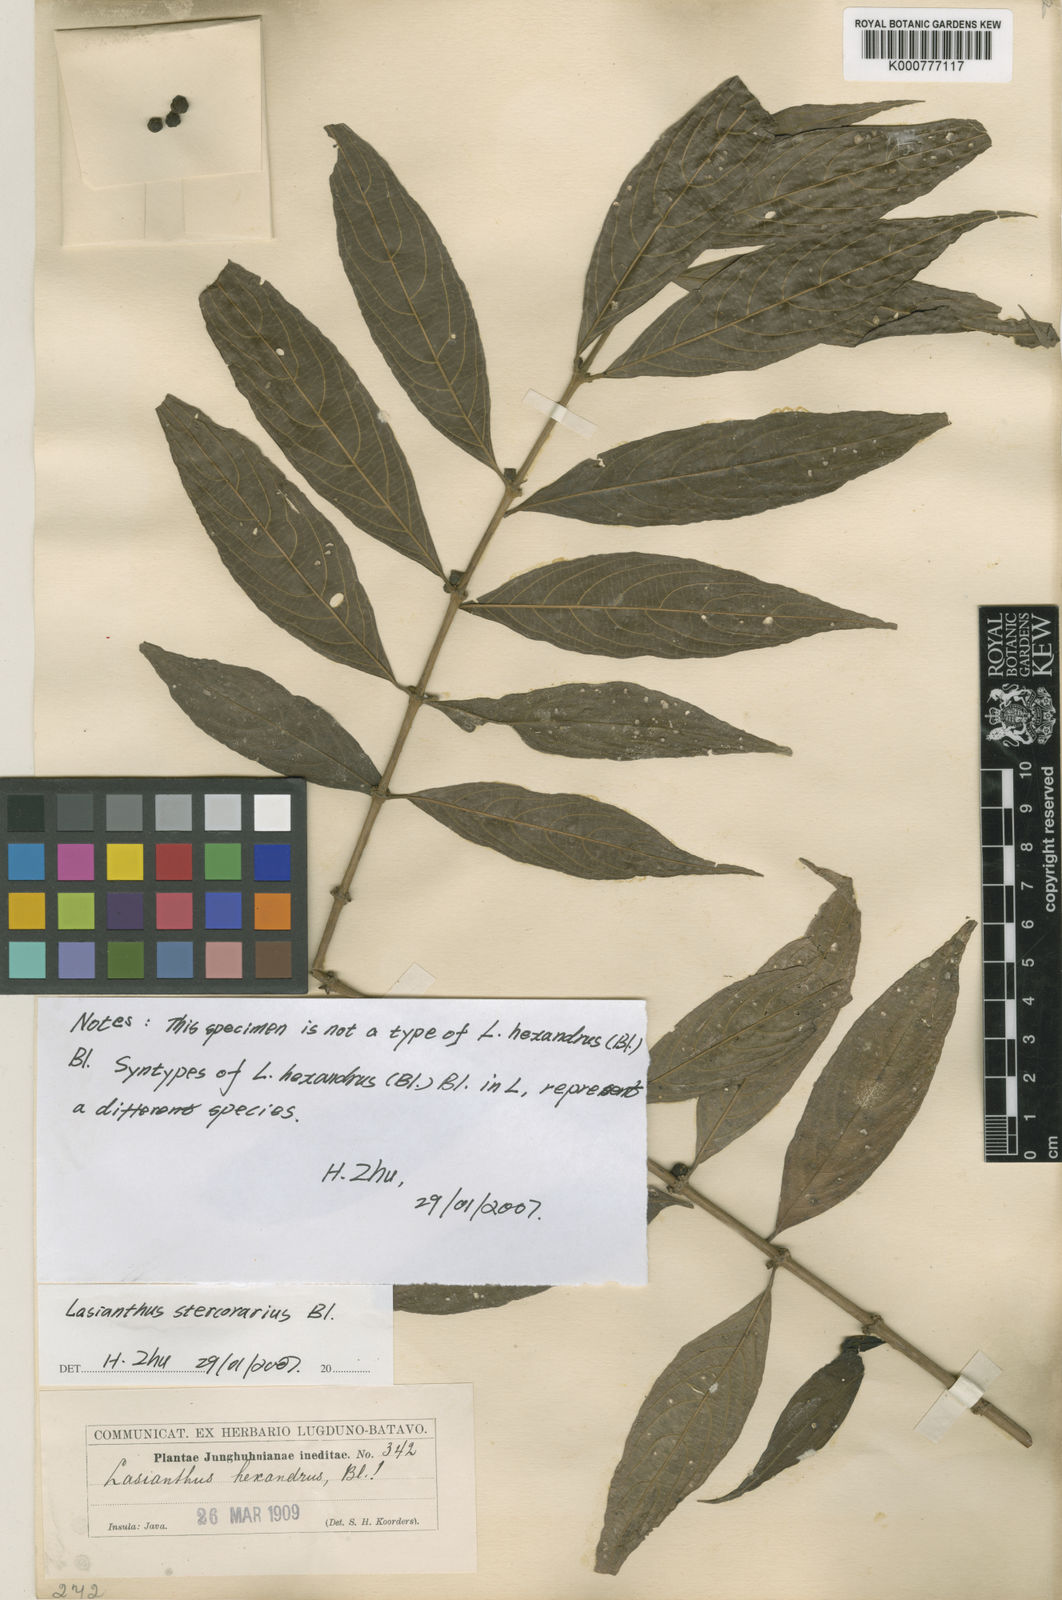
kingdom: Plantae
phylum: Tracheophyta
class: Magnoliopsida
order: Gentianales
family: Rubiaceae
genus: Lasianthus
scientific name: Lasianthus stercorarius
